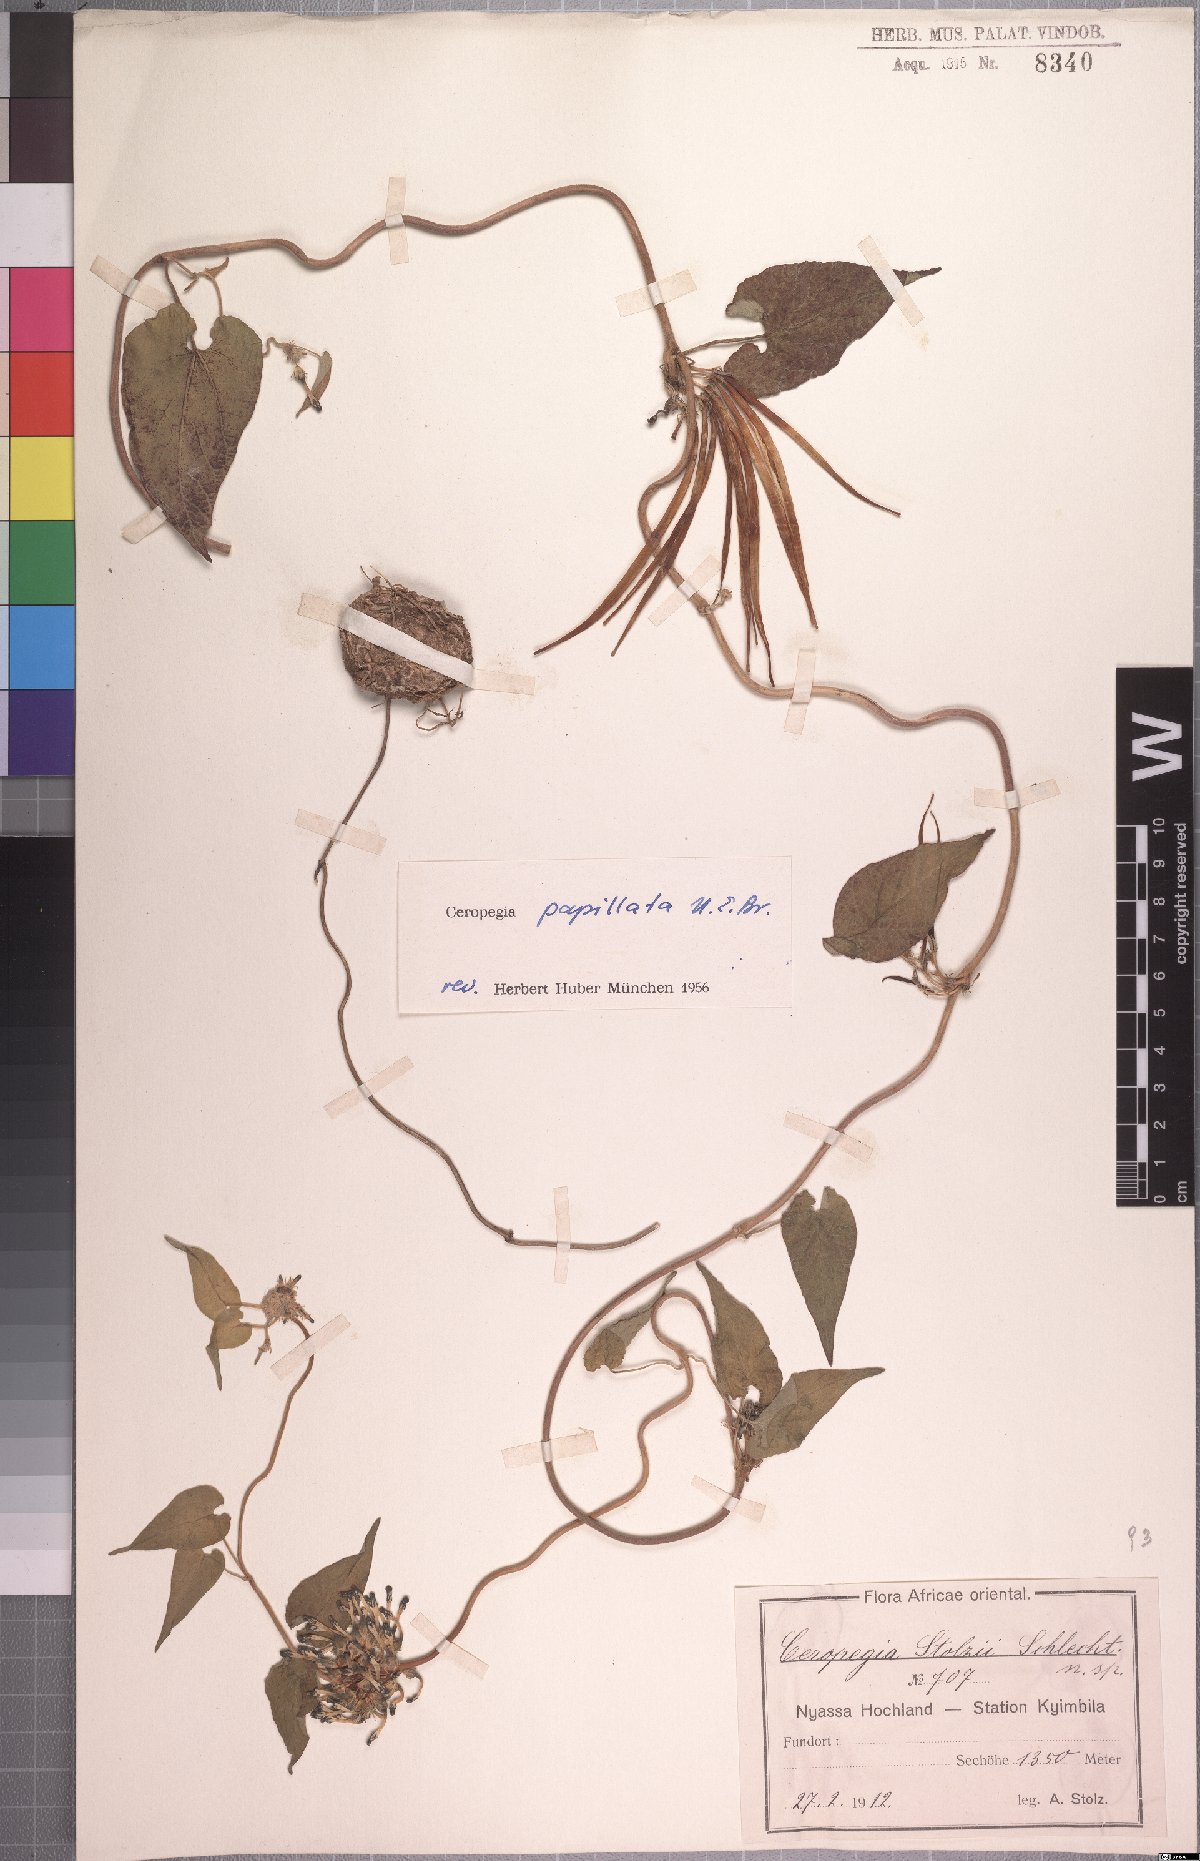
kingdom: Plantae
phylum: Tracheophyta
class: Magnoliopsida
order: Gentianales
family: Apocynaceae
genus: Ceropegia
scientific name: Ceropegia papillata
